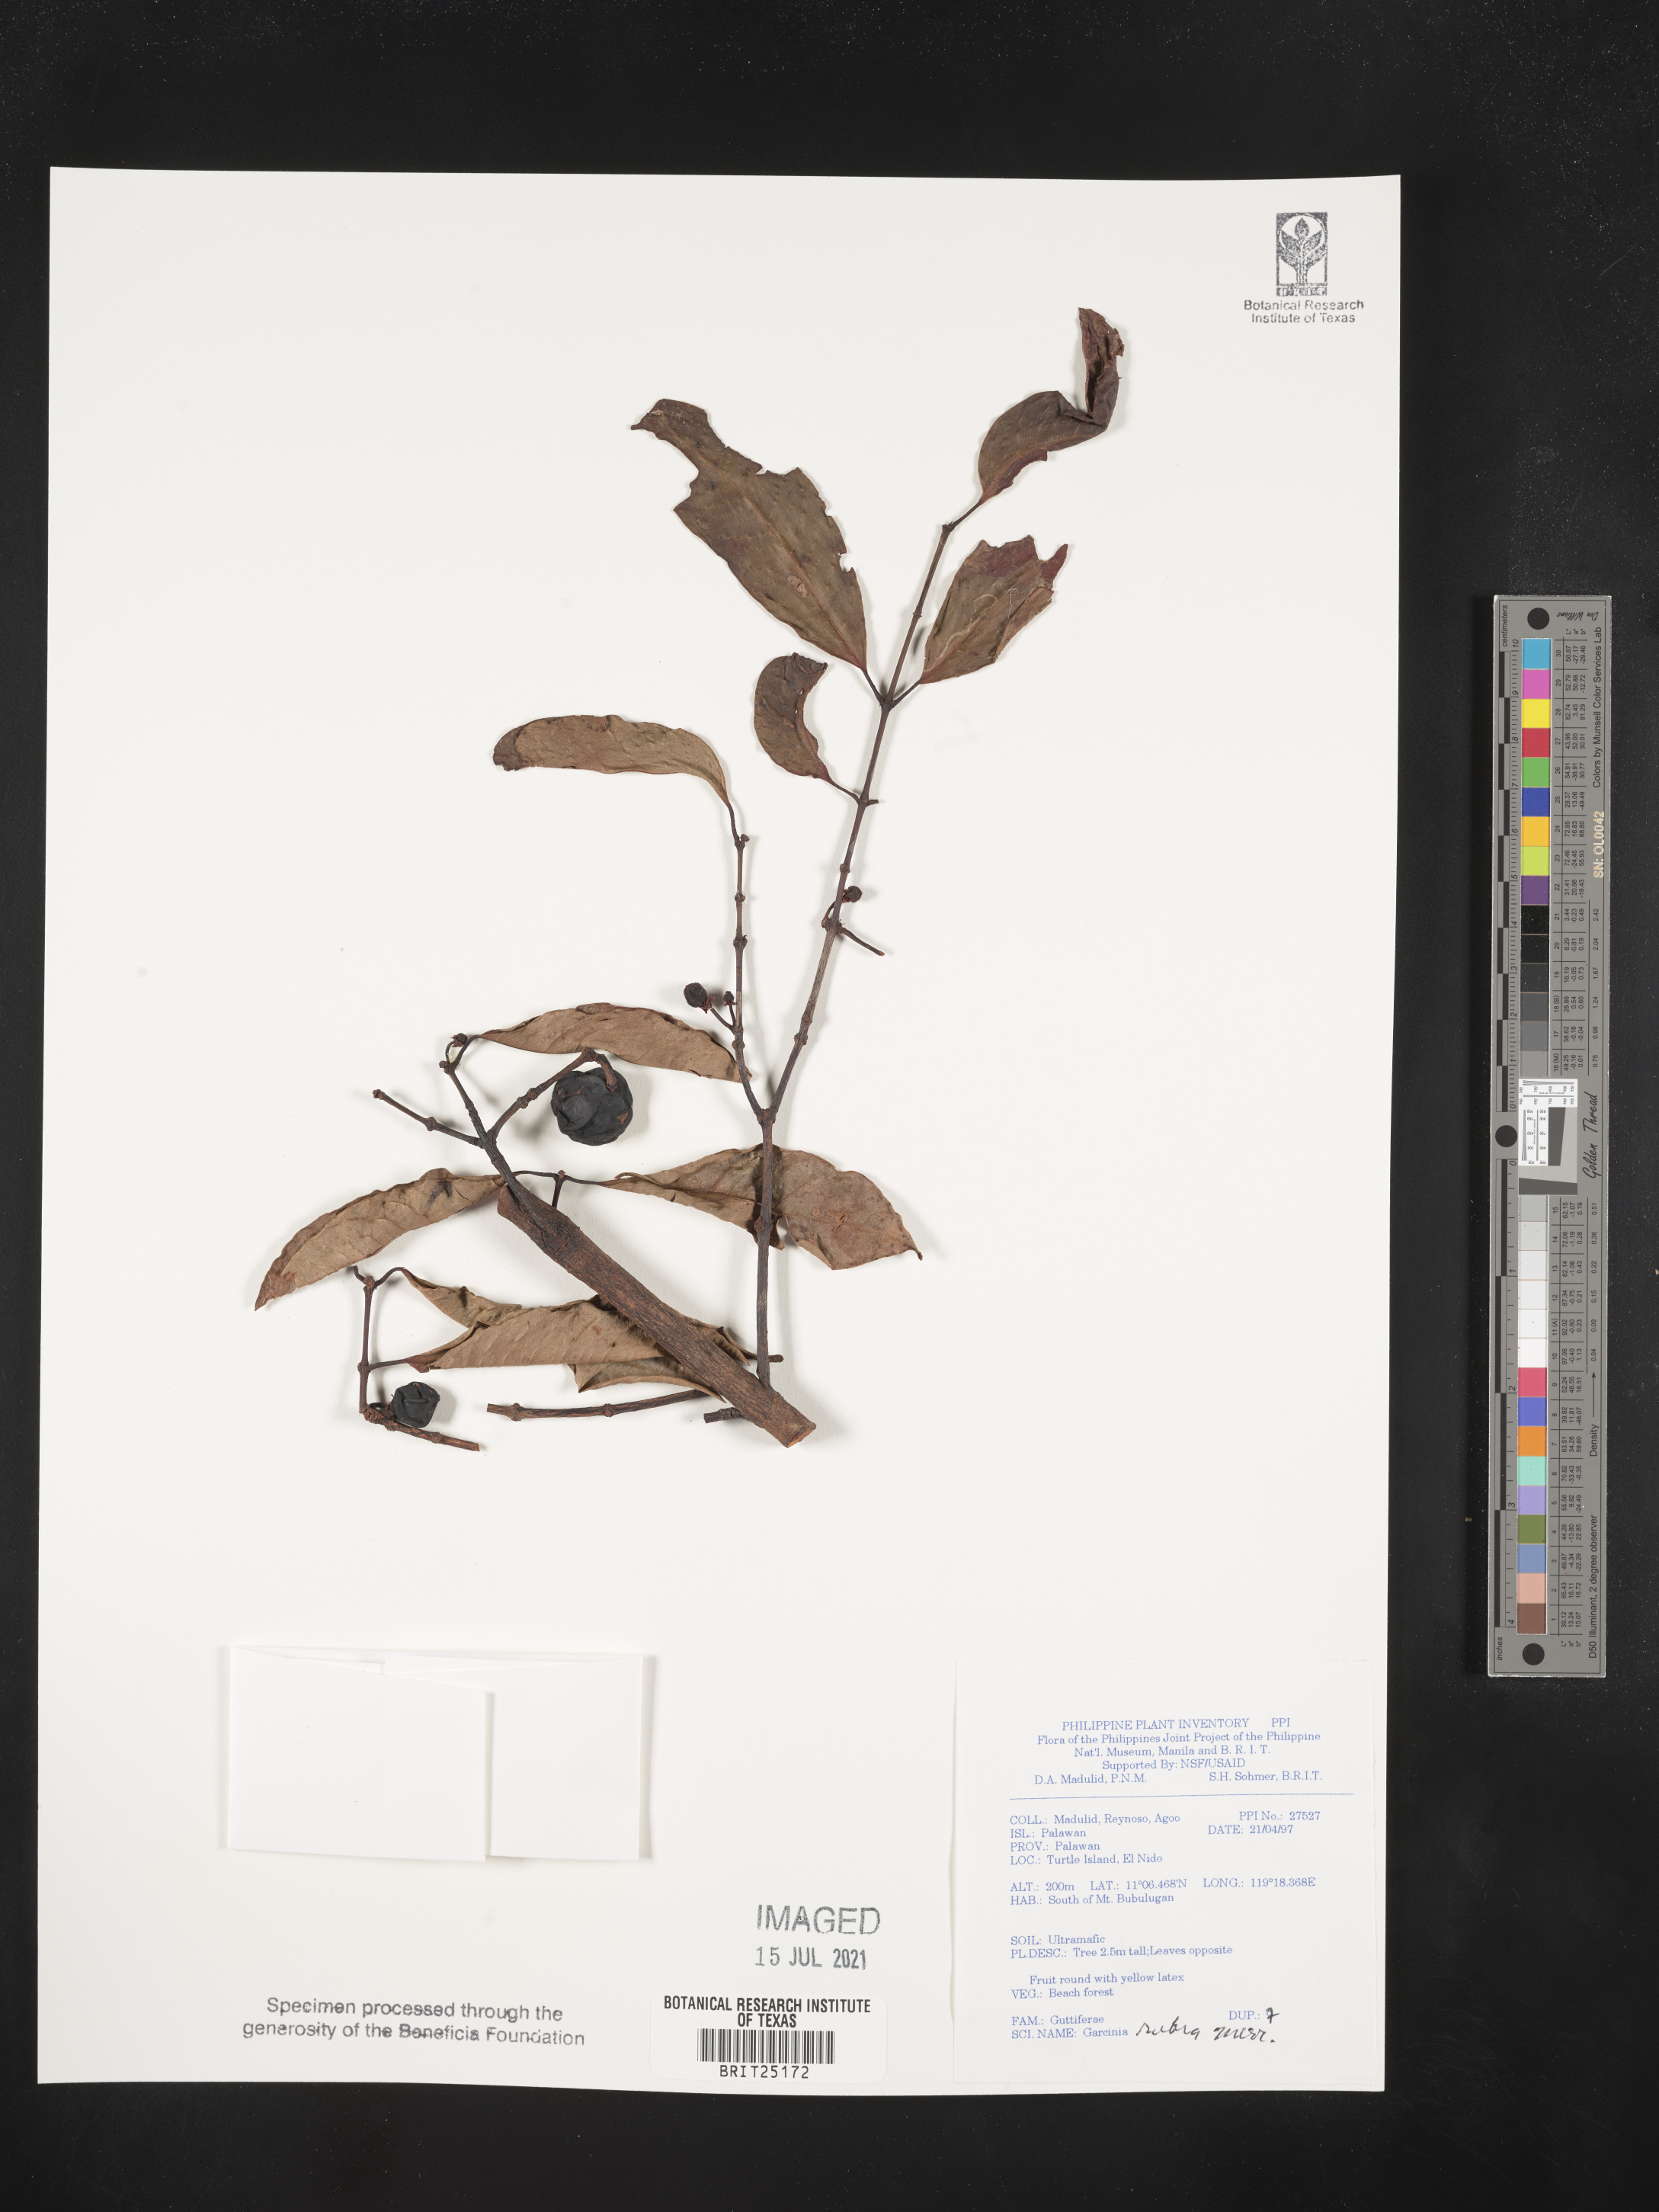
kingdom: Plantae
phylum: Tracheophyta
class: Magnoliopsida
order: Malpighiales
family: Clusiaceae
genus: Garcinia
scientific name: Garcinia rubra
